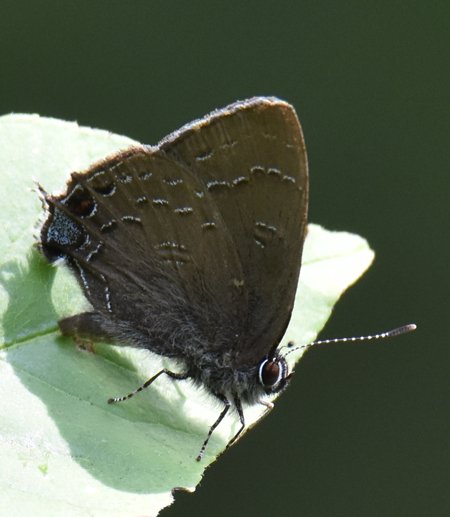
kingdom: Animalia
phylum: Arthropoda
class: Insecta
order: Lepidoptera
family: Lycaenidae
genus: Satyrium
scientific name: Satyrium calanus
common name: Banded Hairstreak
